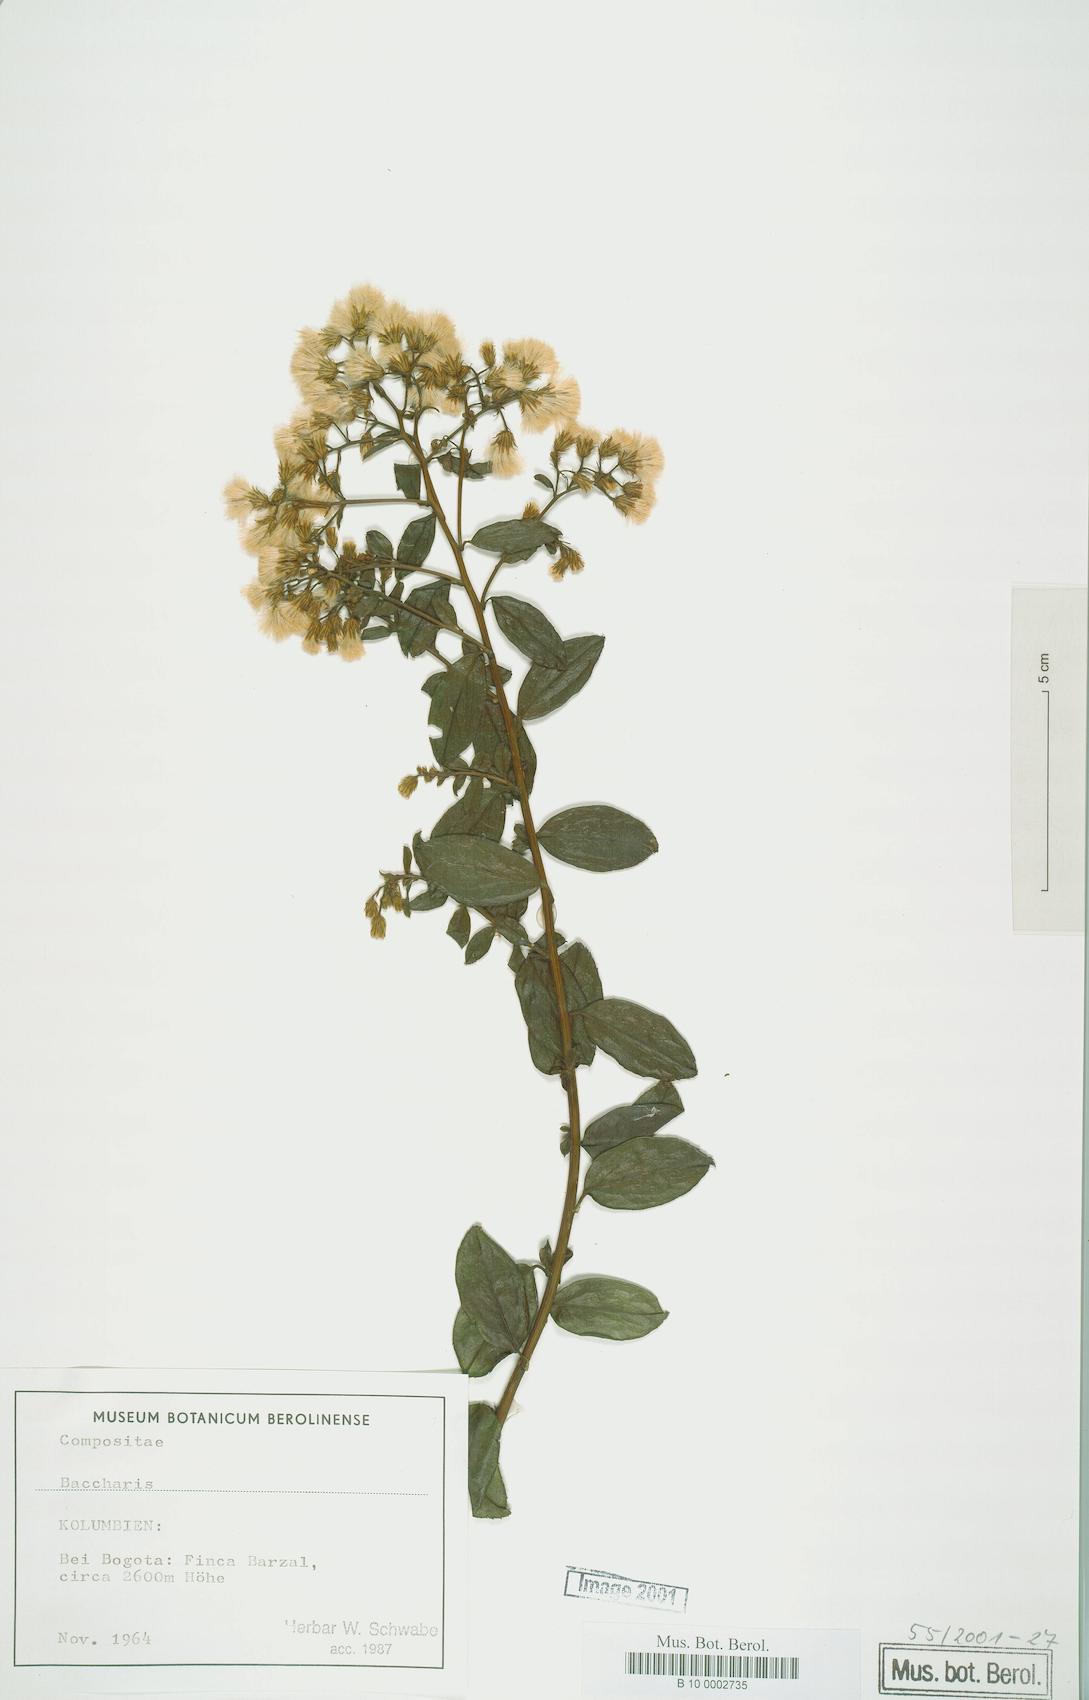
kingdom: Plantae
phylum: Tracheophyta
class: Magnoliopsida
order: Asterales
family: Asteraceae
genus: Baccharis
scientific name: Baccharis
